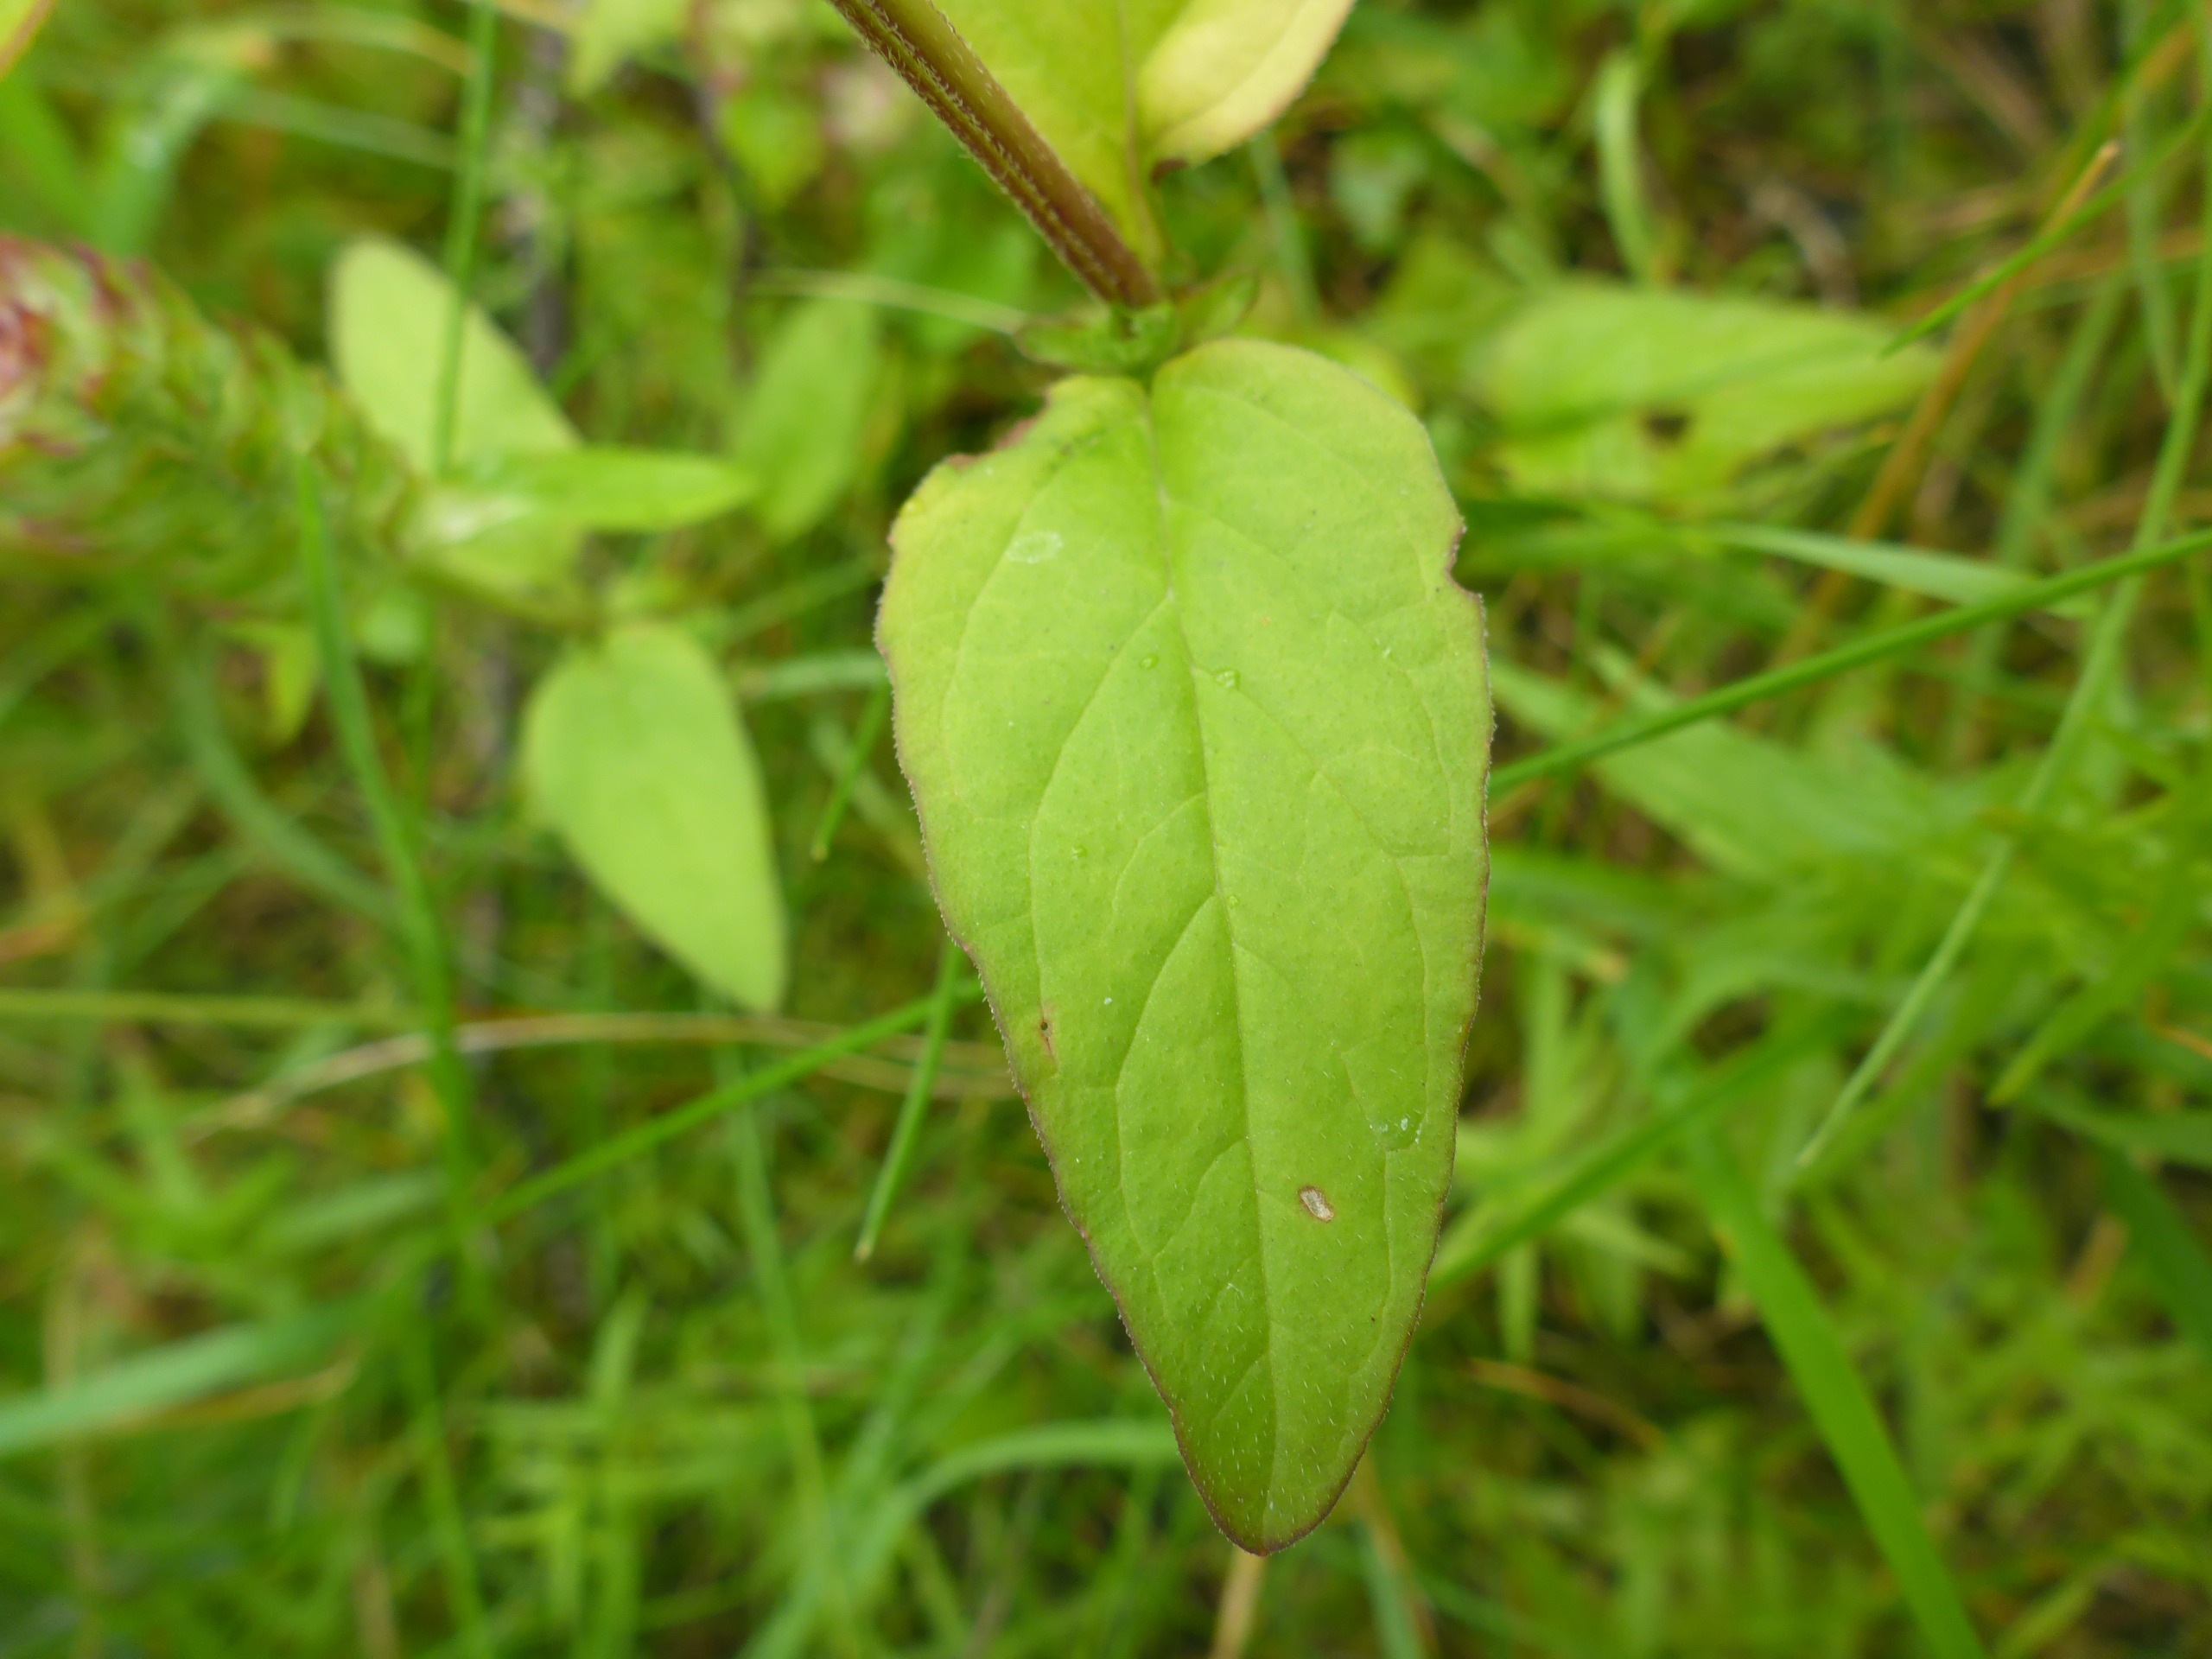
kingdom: Plantae
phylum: Tracheophyta
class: Magnoliopsida
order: Lamiales
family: Lamiaceae
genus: Prunella
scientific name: Prunella vulgaris
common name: Almindelig brunelle
